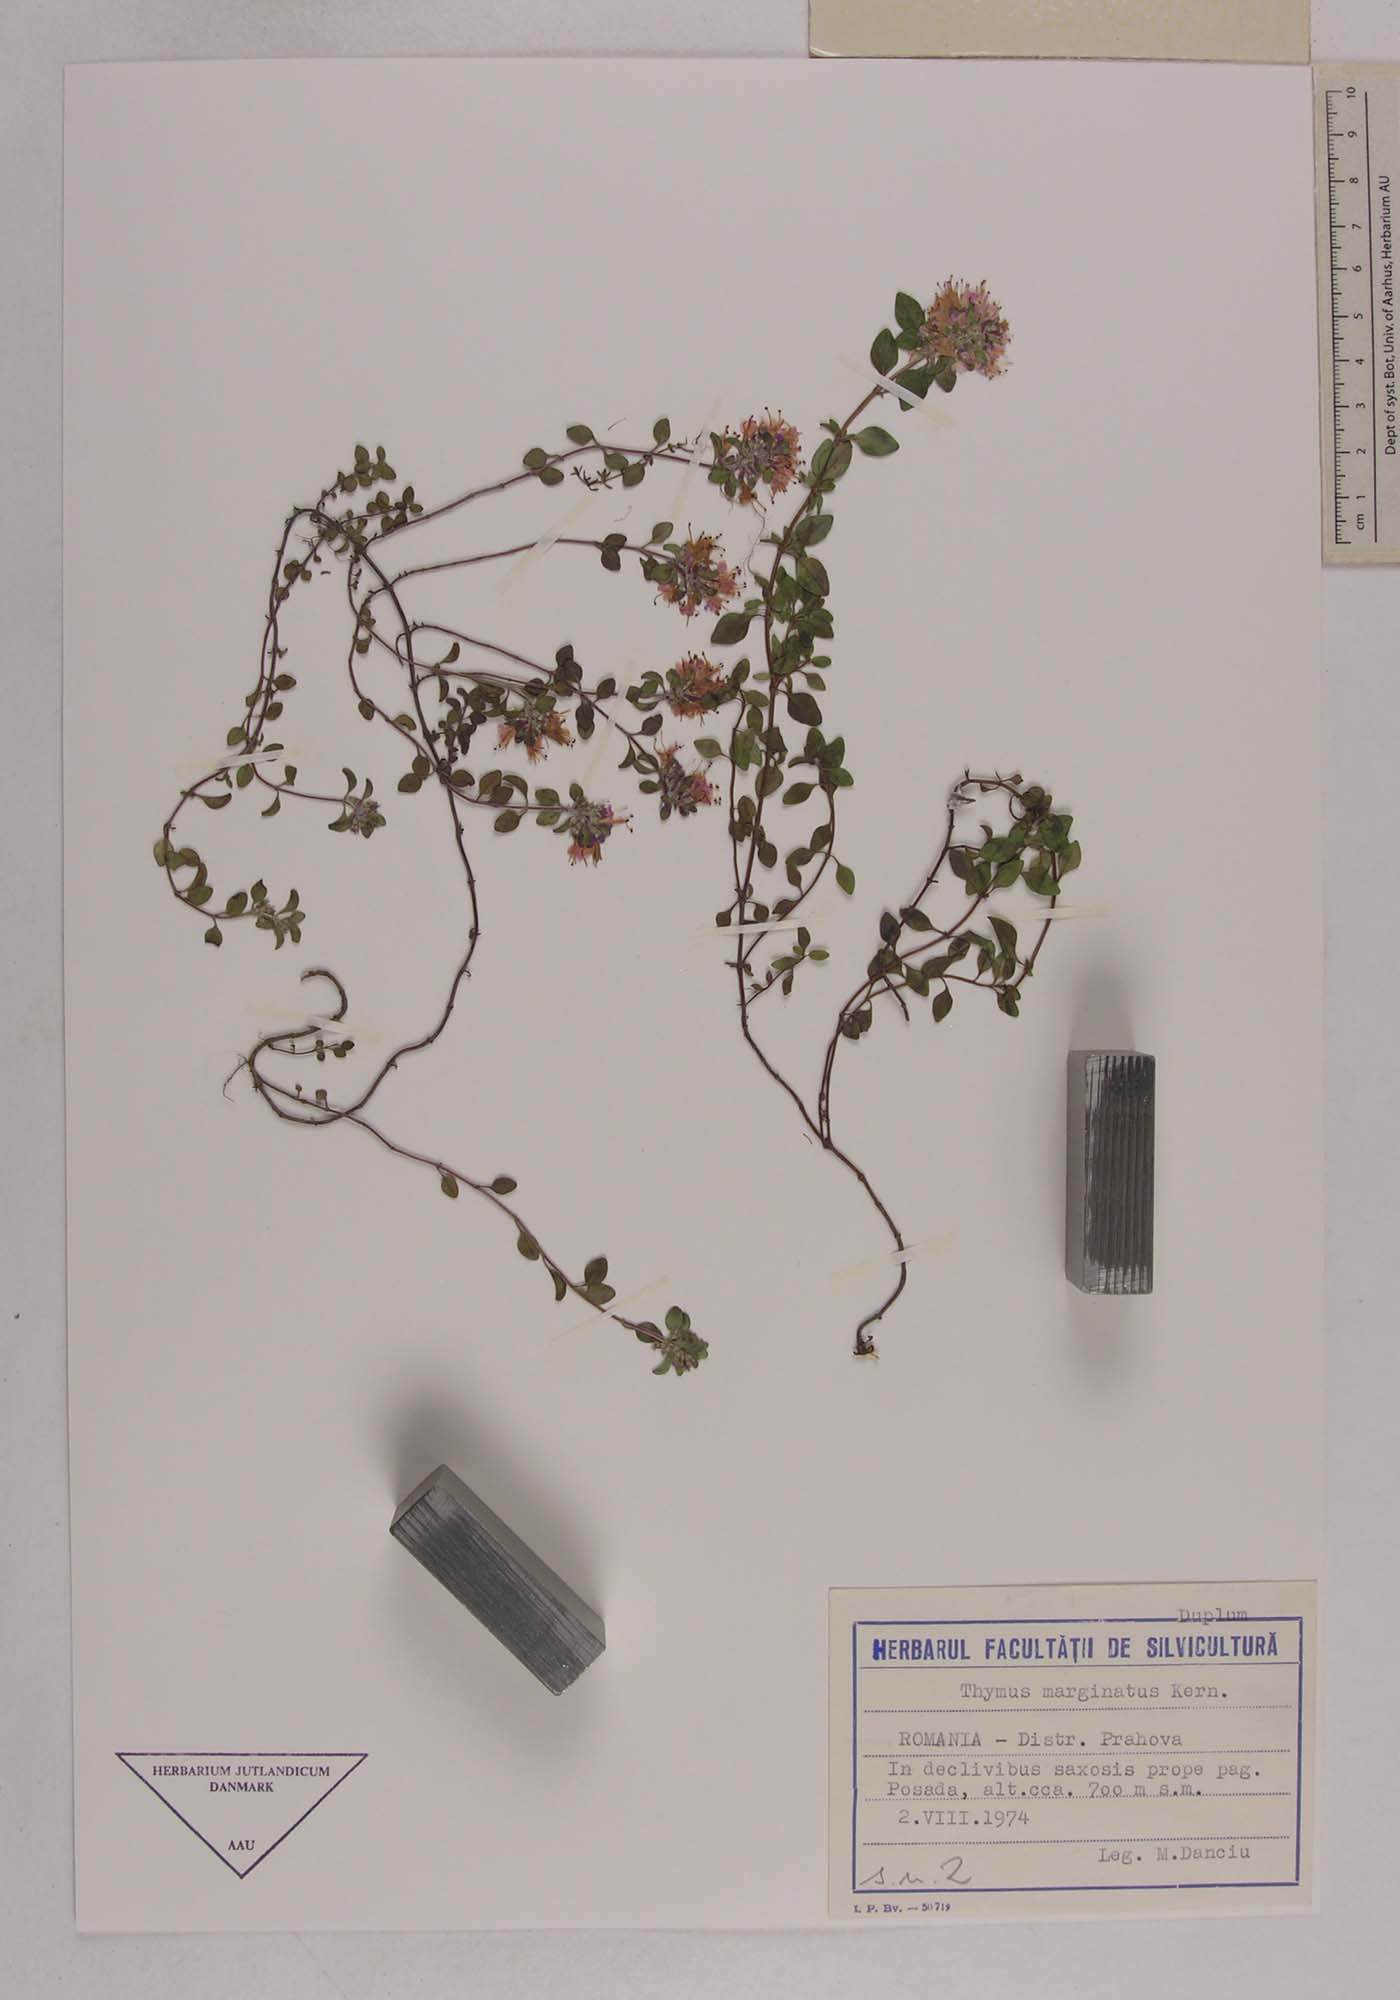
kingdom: Plantae
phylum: Tracheophyta
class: Magnoliopsida
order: Lamiales
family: Lamiaceae
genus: Thymus
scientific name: Thymus bihoriensis
